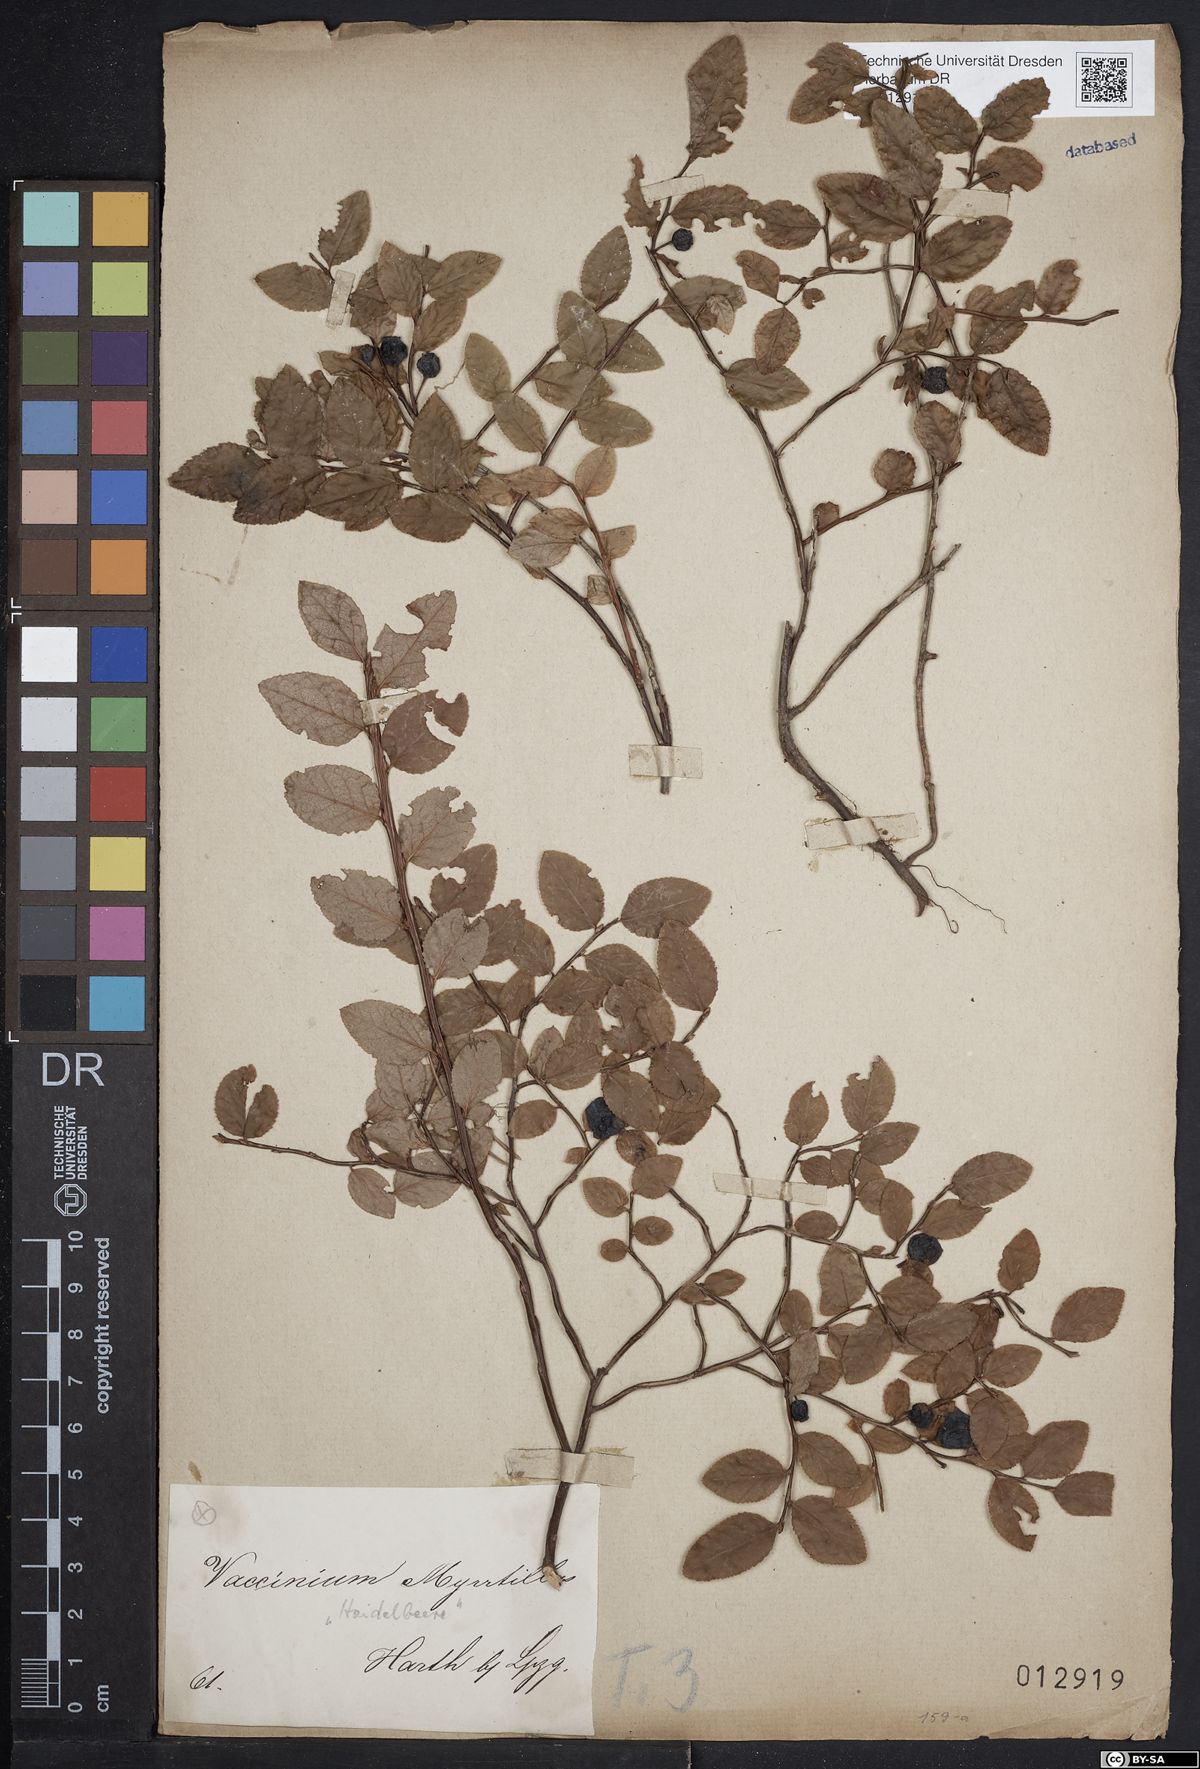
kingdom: Plantae
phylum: Tracheophyta
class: Magnoliopsida
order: Ericales
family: Ericaceae
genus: Vaccinium
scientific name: Vaccinium myrtillus
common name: Bilberry
